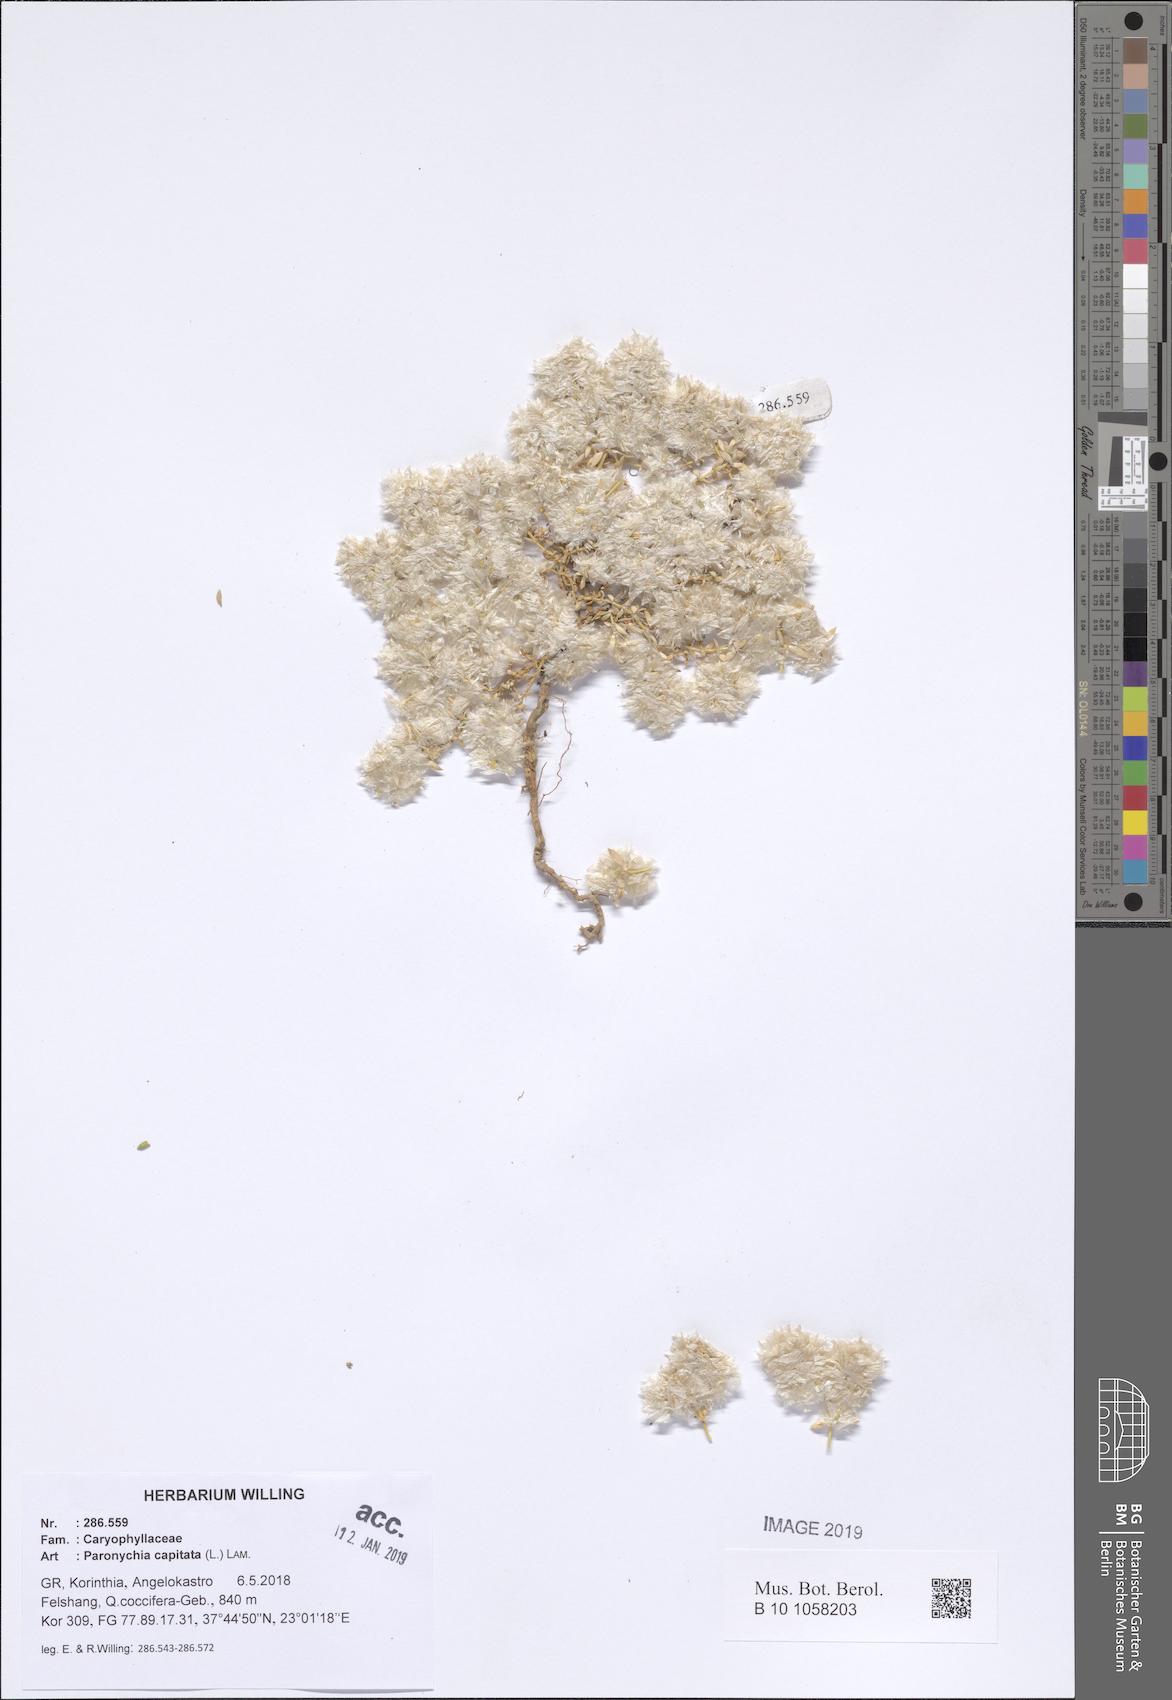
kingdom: Plantae
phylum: Tracheophyta
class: Magnoliopsida
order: Caryophyllales
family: Caryophyllaceae
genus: Paronychia
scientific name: Paronychia capitata
